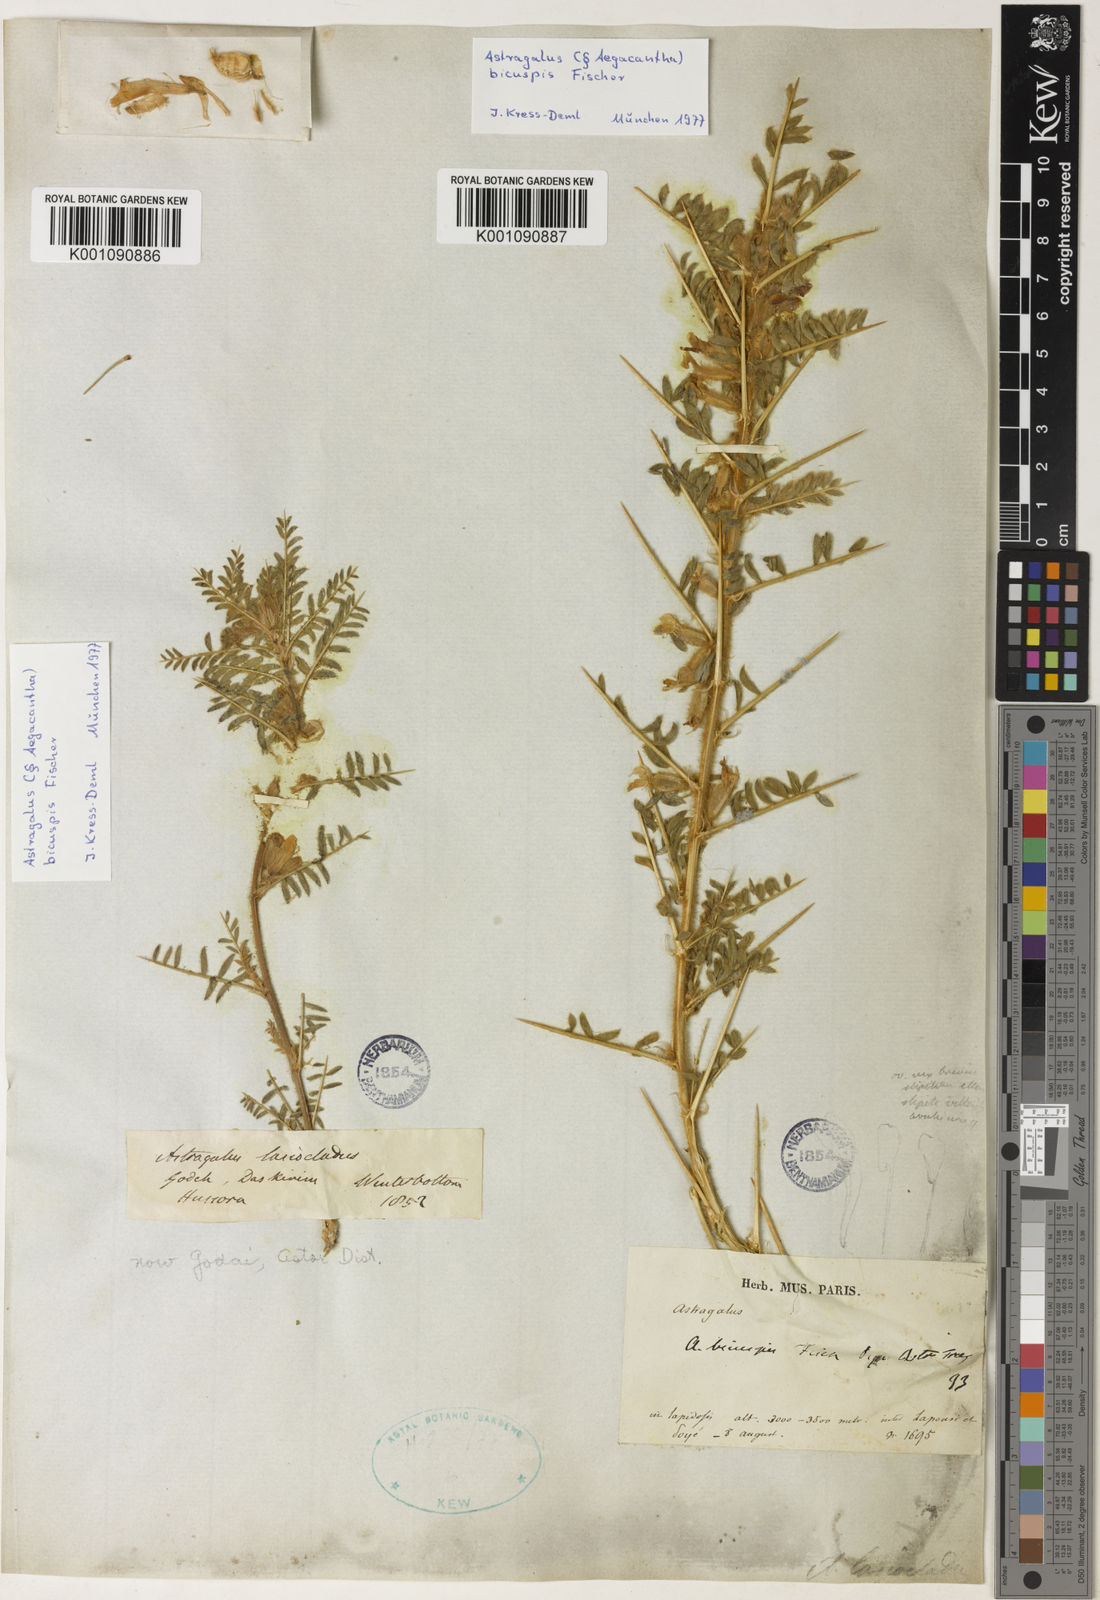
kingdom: Plantae
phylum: Tracheophyta
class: Magnoliopsida
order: Fabales
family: Fabaceae
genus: Astragalus
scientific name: Astragalus
